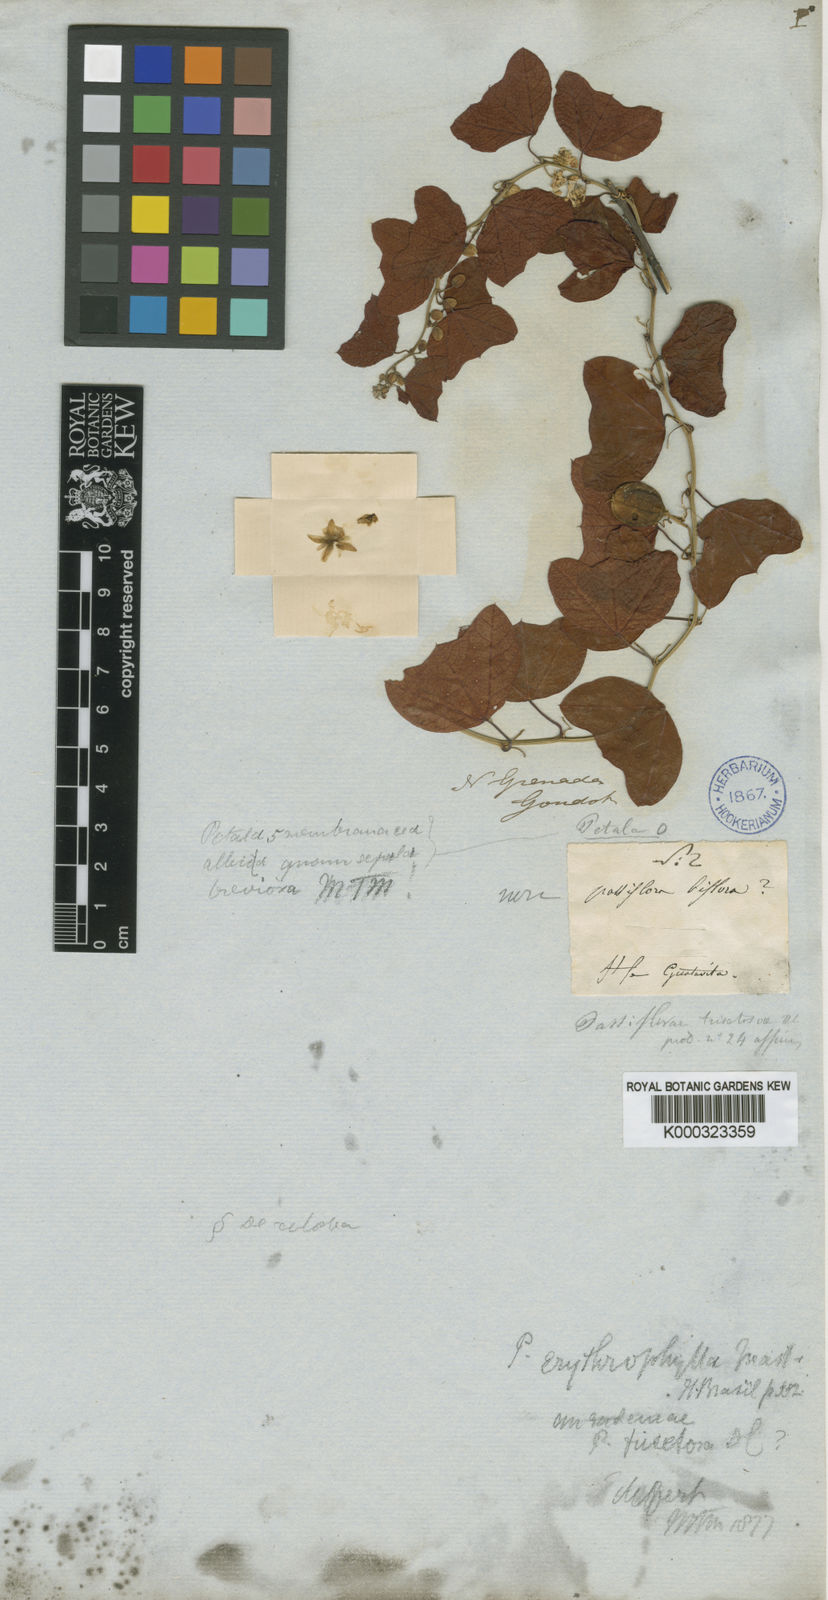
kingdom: Plantae
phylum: Tracheophyta
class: Magnoliopsida
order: Malpighiales
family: Passifloraceae
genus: Passiflora
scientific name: Passiflora erythrophylla
